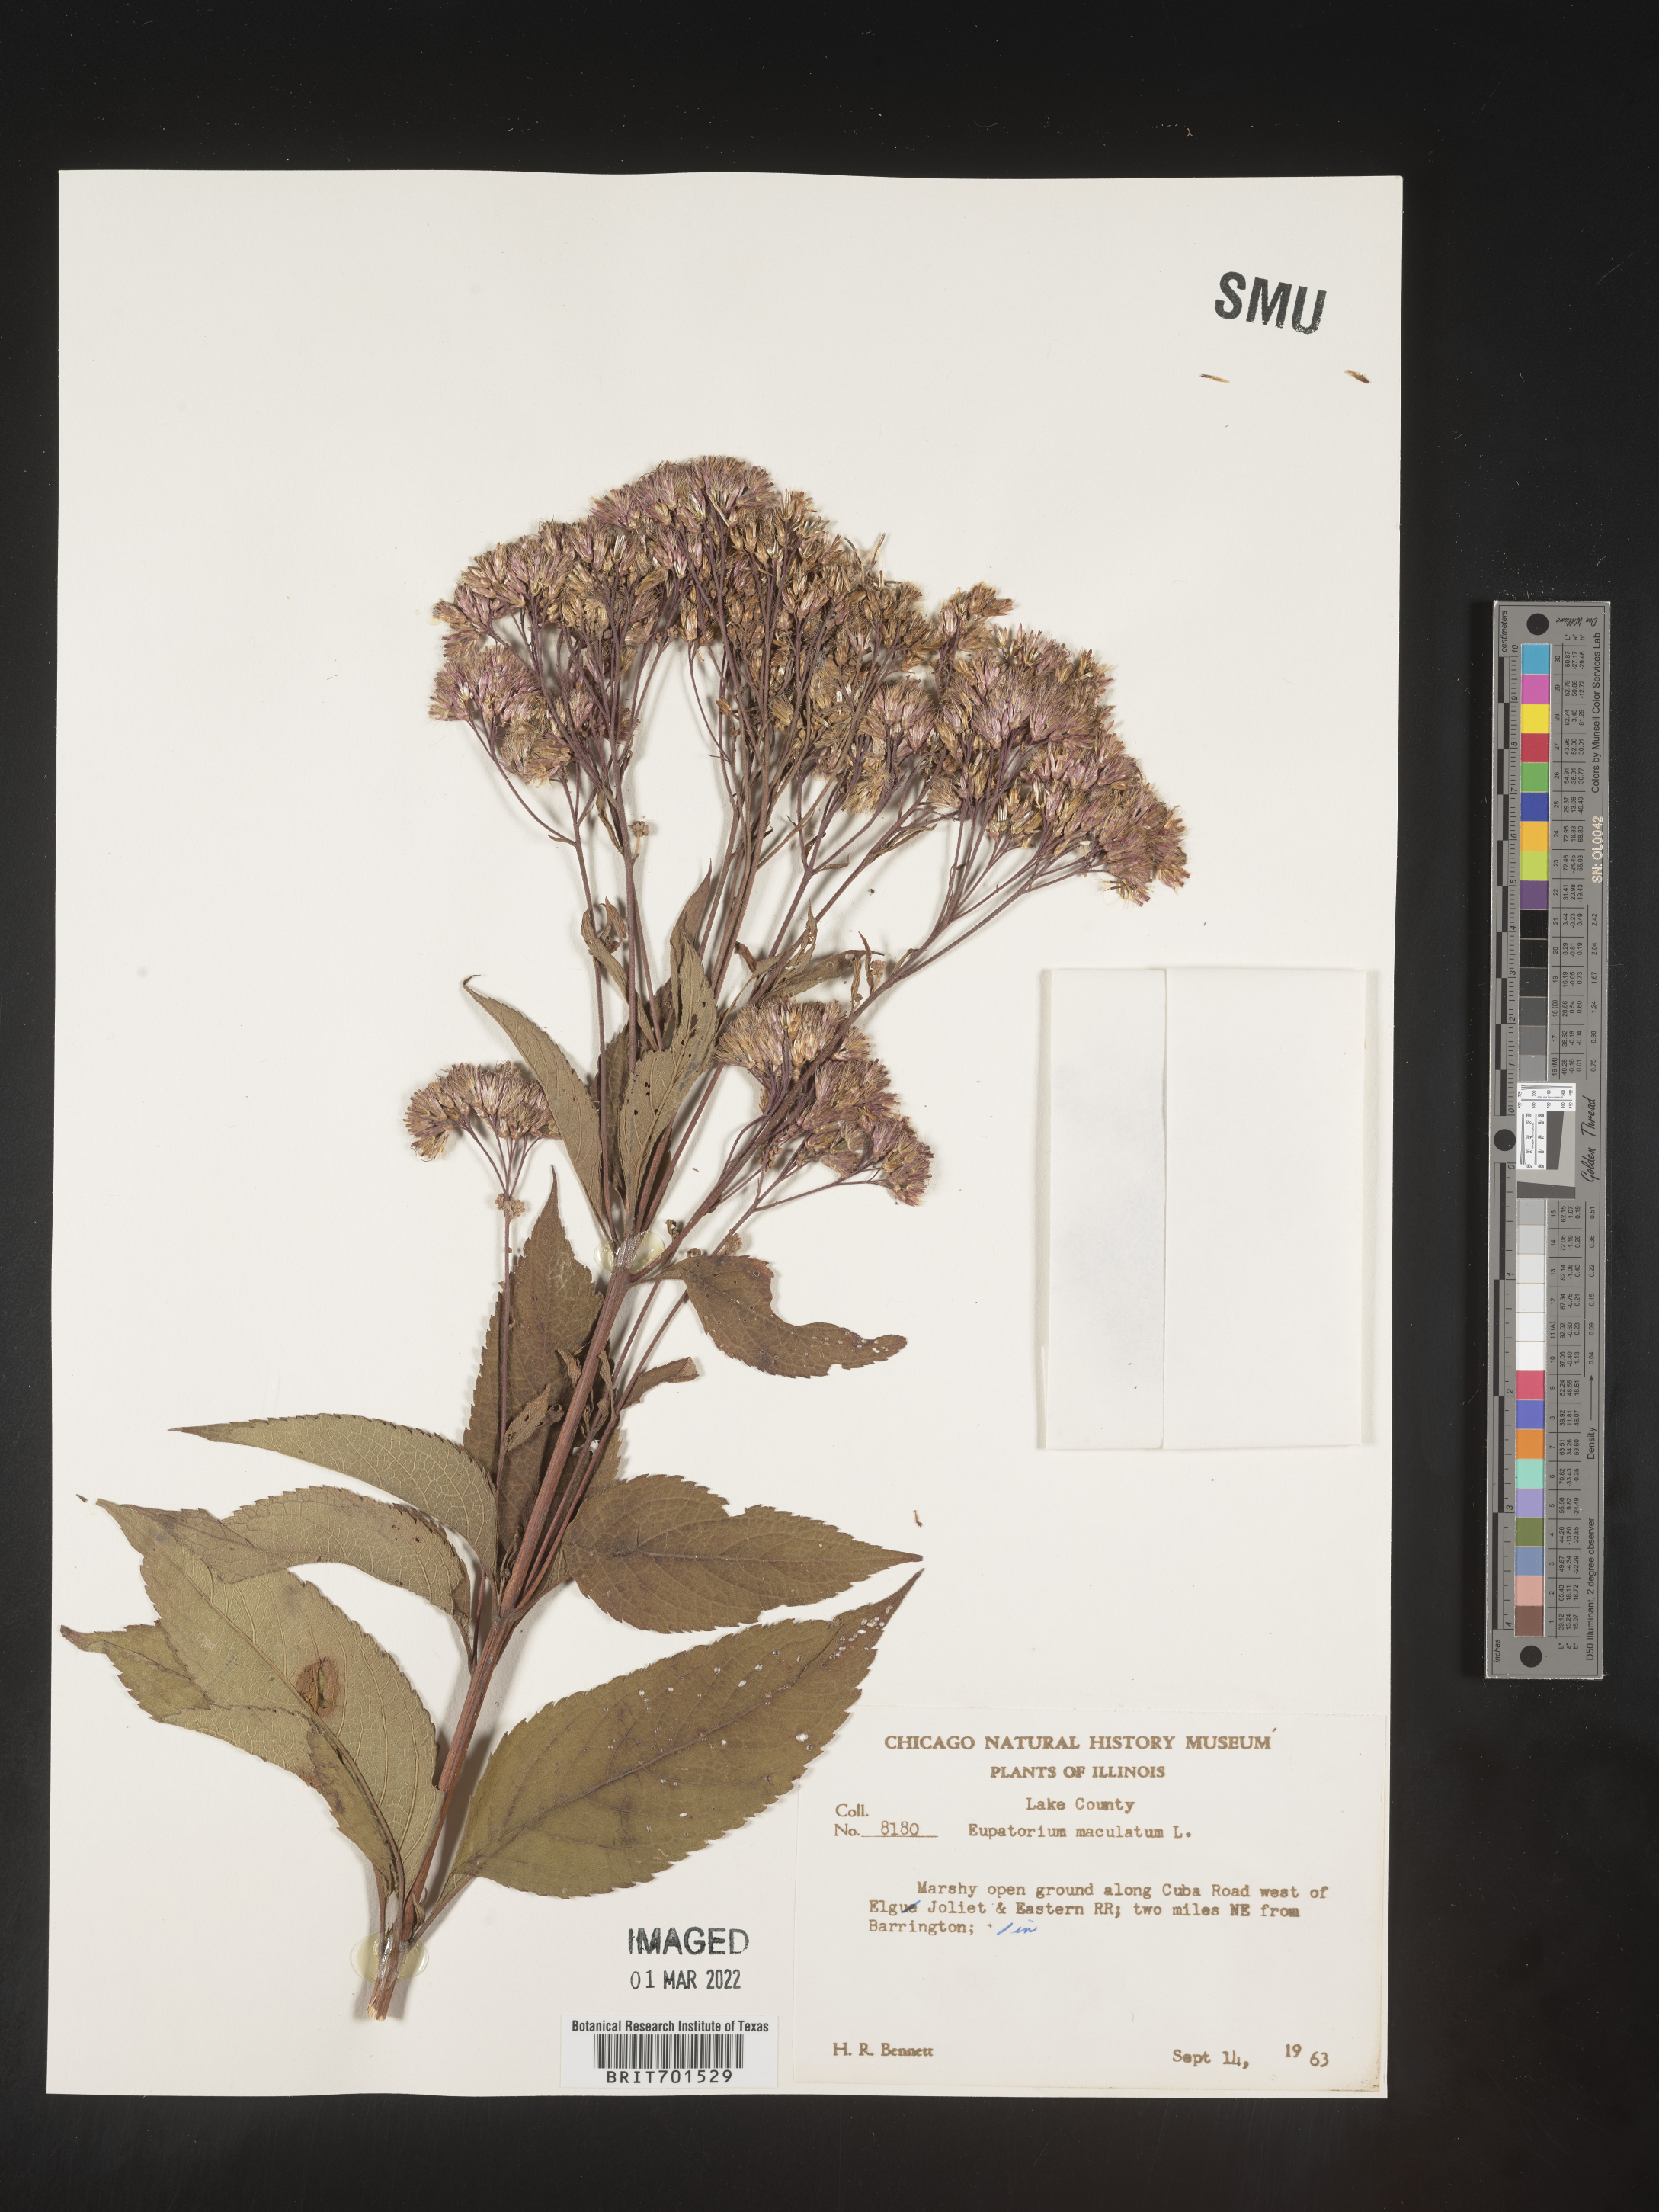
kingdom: Plantae
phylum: Tracheophyta
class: Magnoliopsida
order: Asterales
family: Asteraceae
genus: Eutrochium
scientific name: Eutrochium maculatum
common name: Spotted joe pye weed
